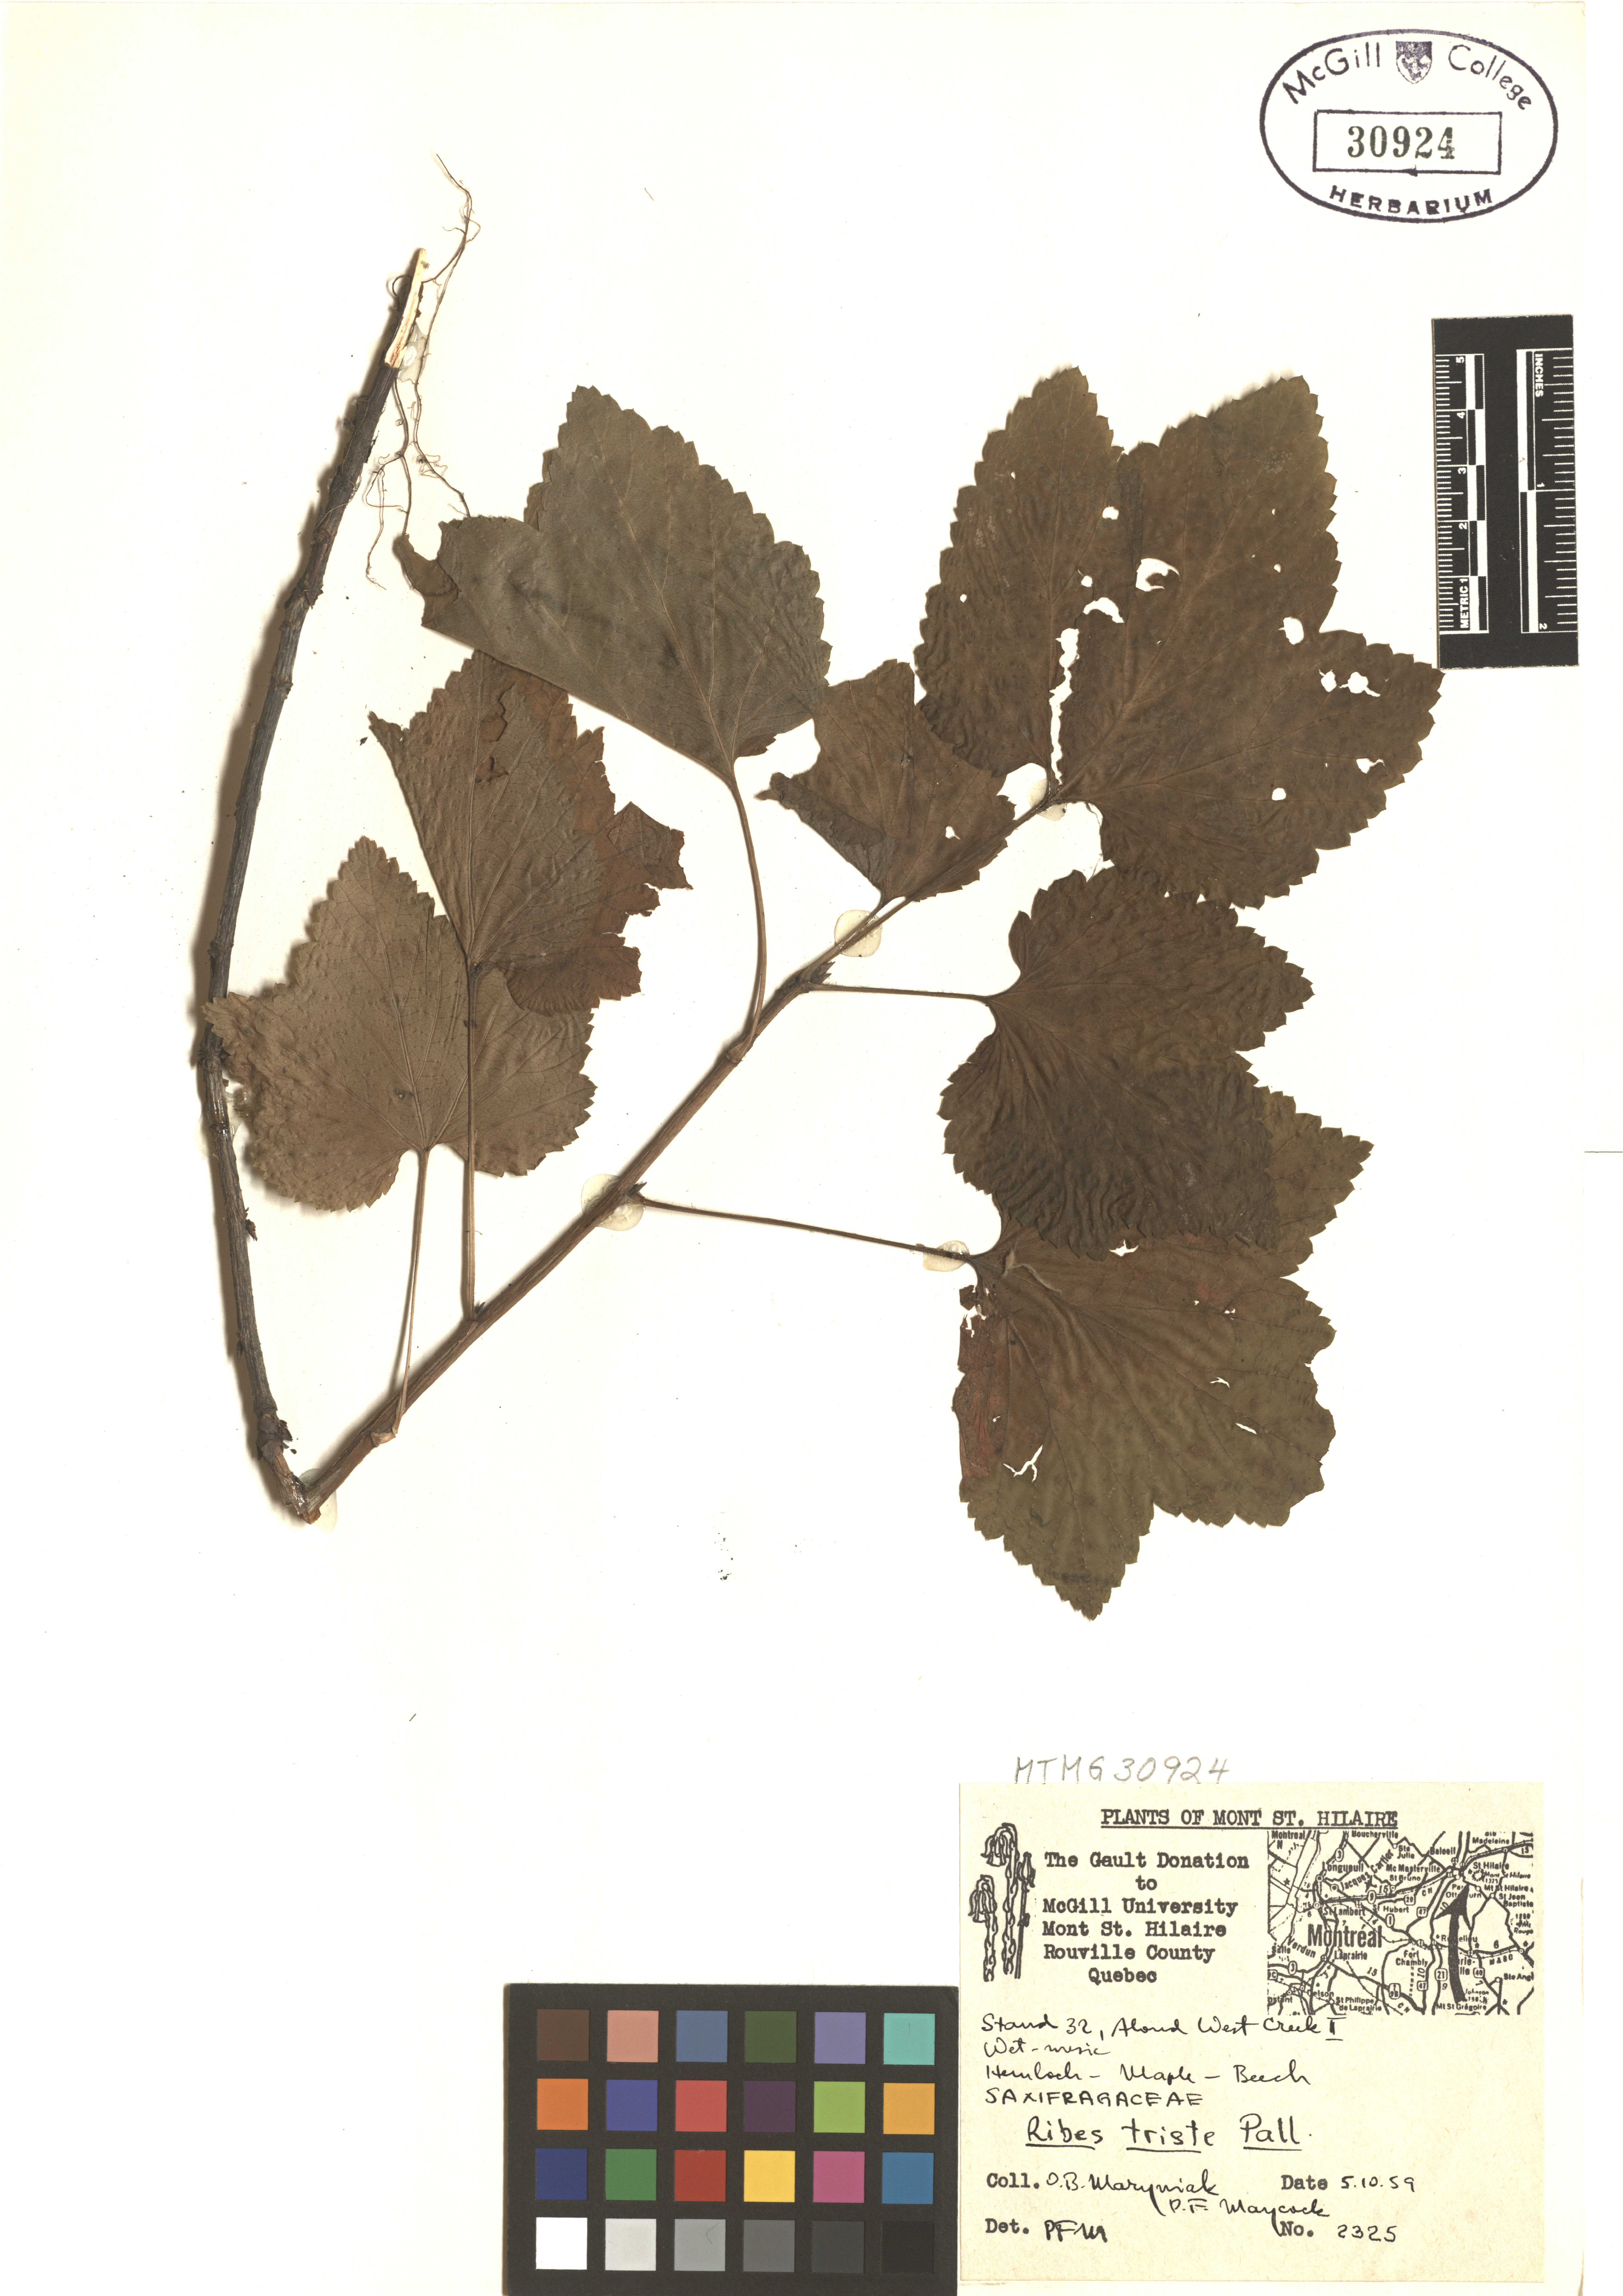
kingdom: Plantae
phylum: Tracheophyta
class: Magnoliopsida
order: Saxifragales
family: Grossulariaceae
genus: Ribes
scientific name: Ribes triste
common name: Swamp red currant
